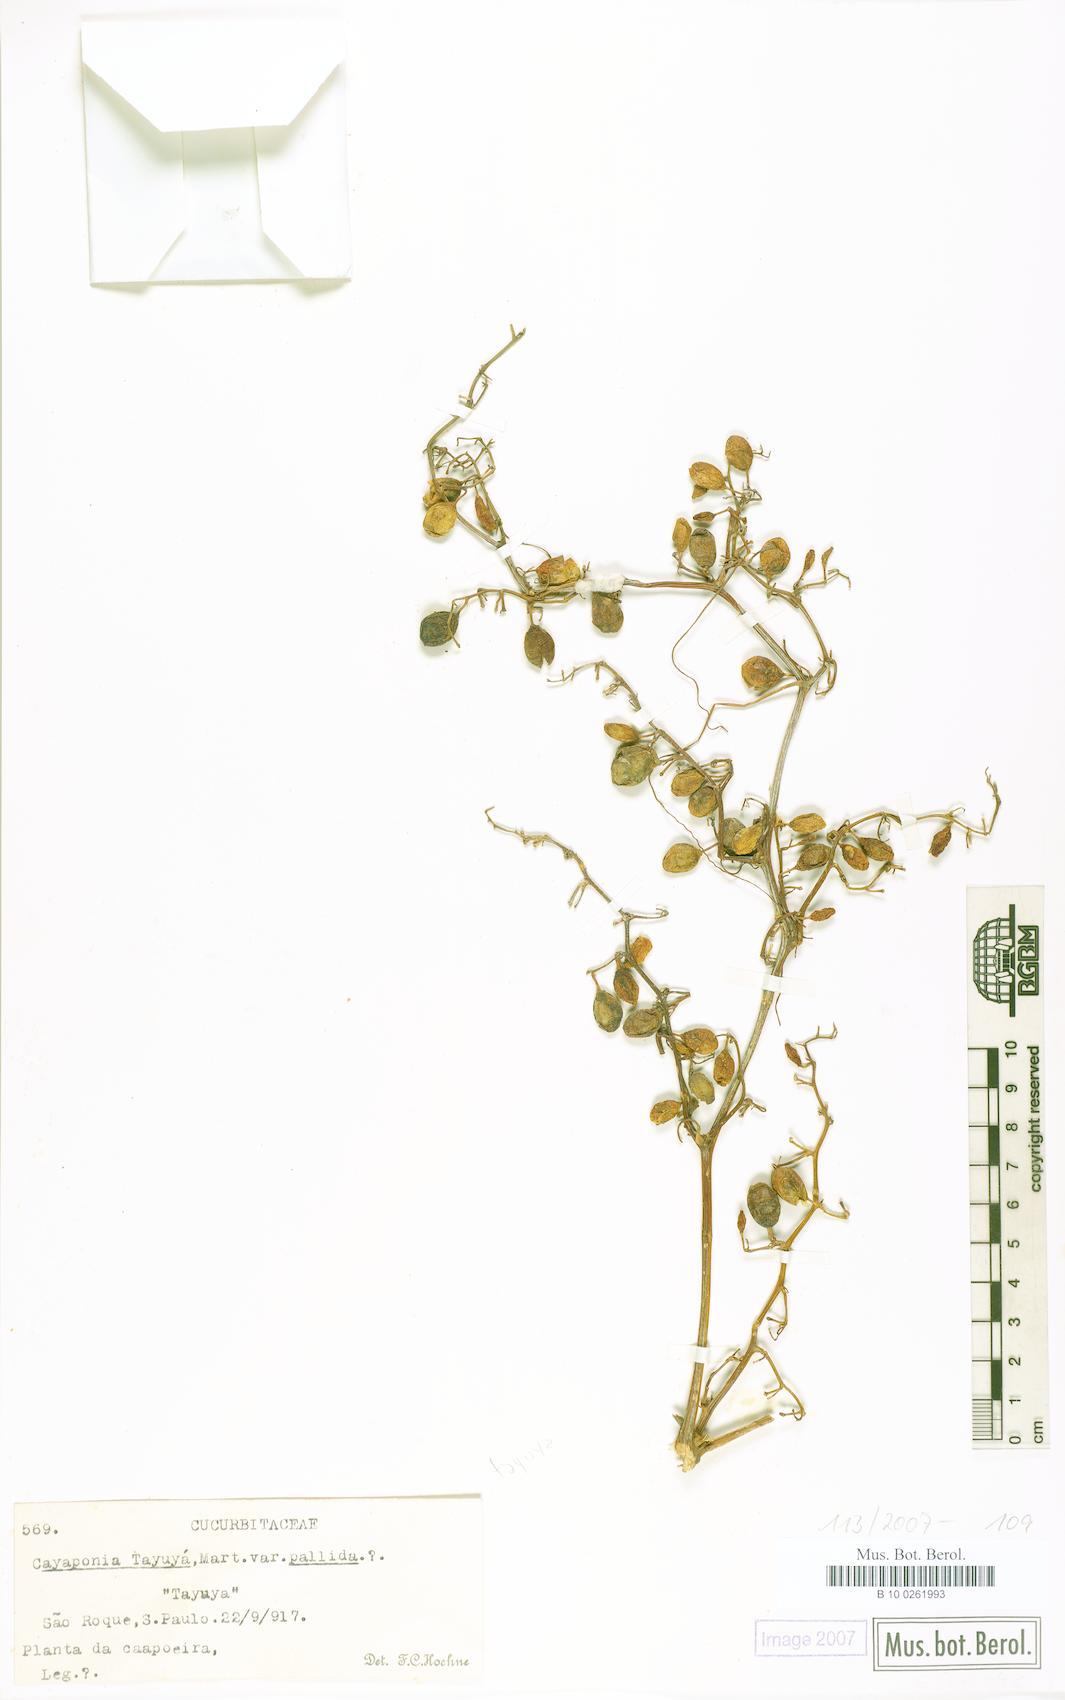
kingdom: Plantae
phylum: Tracheophyta
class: Magnoliopsida
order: Cucurbitales
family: Cucurbitaceae
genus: Cayaponia
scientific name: Cayaponia tayuya
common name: Tayuya
